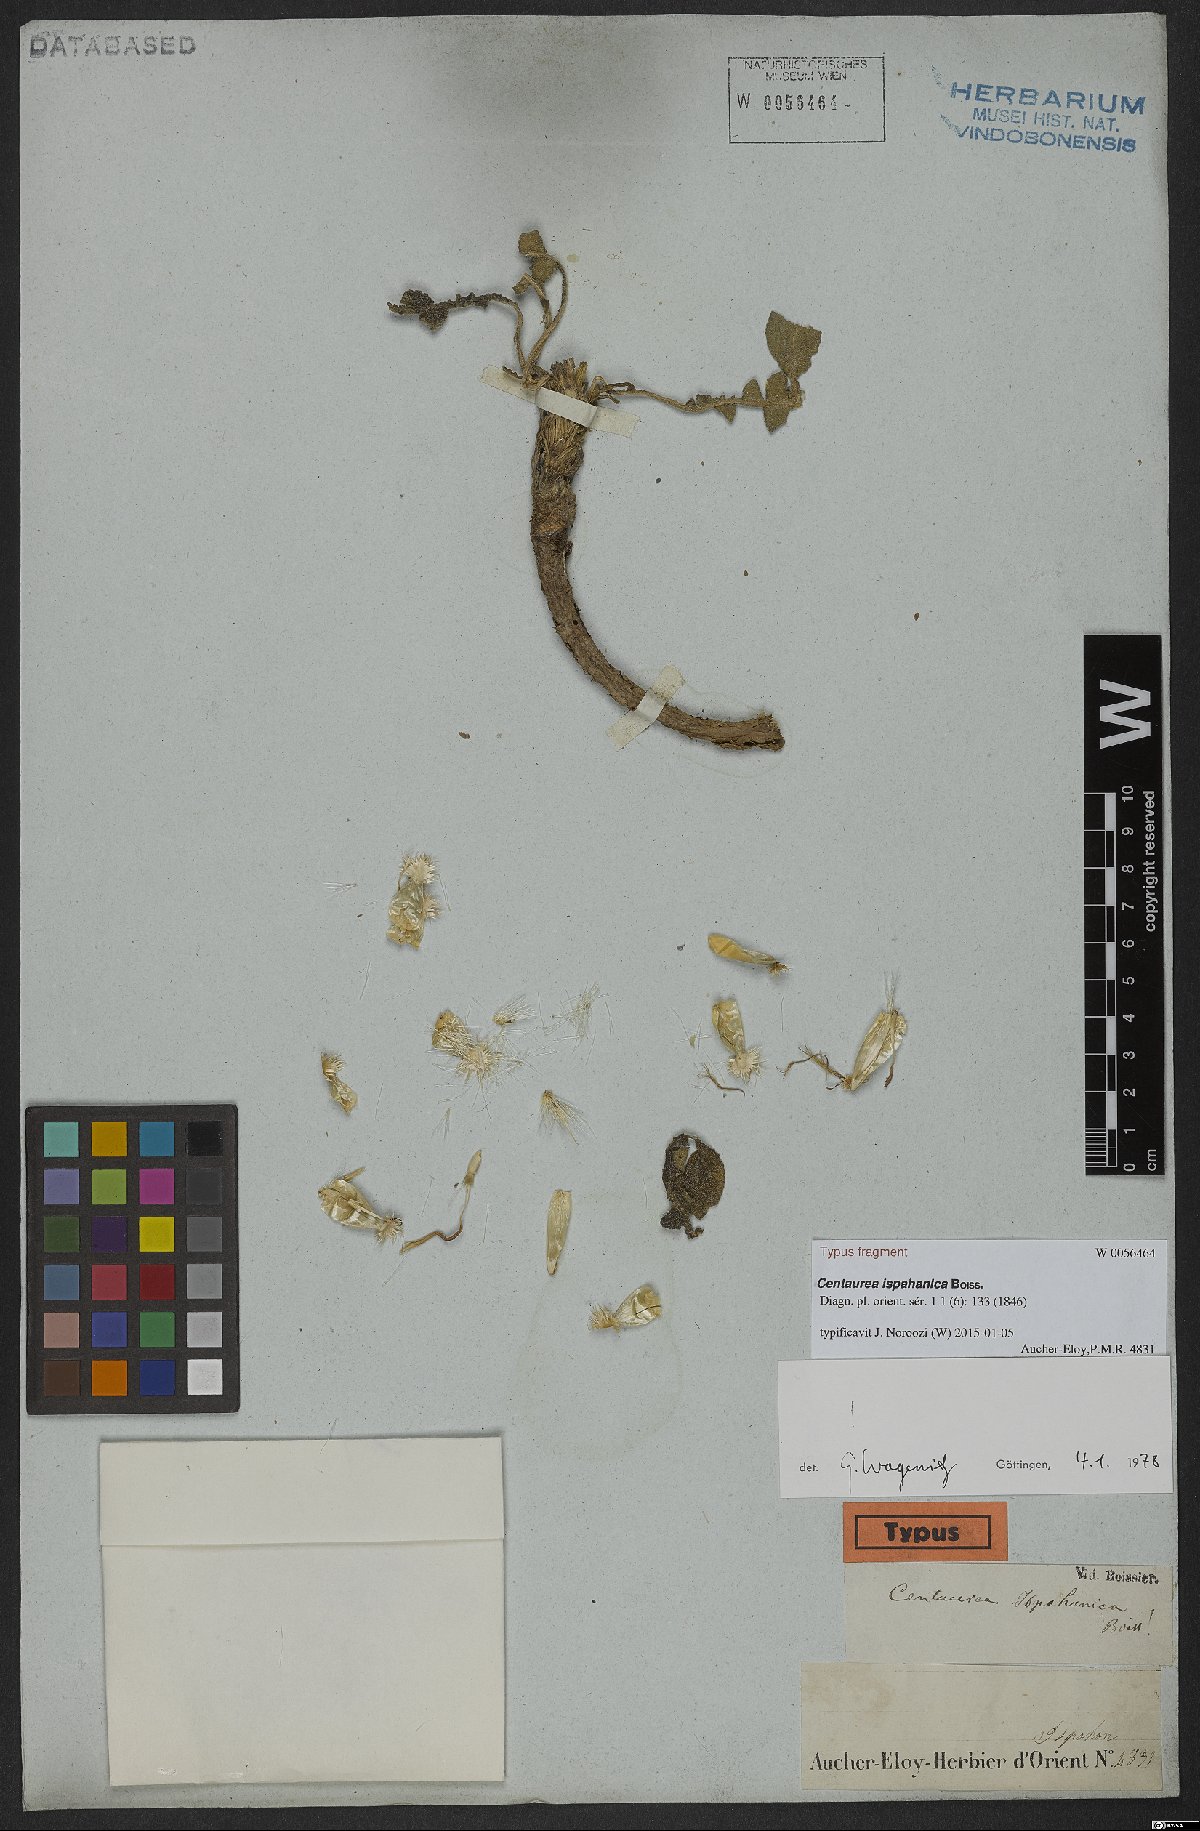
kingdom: Plantae
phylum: Tracheophyta
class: Magnoliopsida
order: Asterales
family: Asteraceae
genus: Centaurea
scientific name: Centaurea ispahanica
